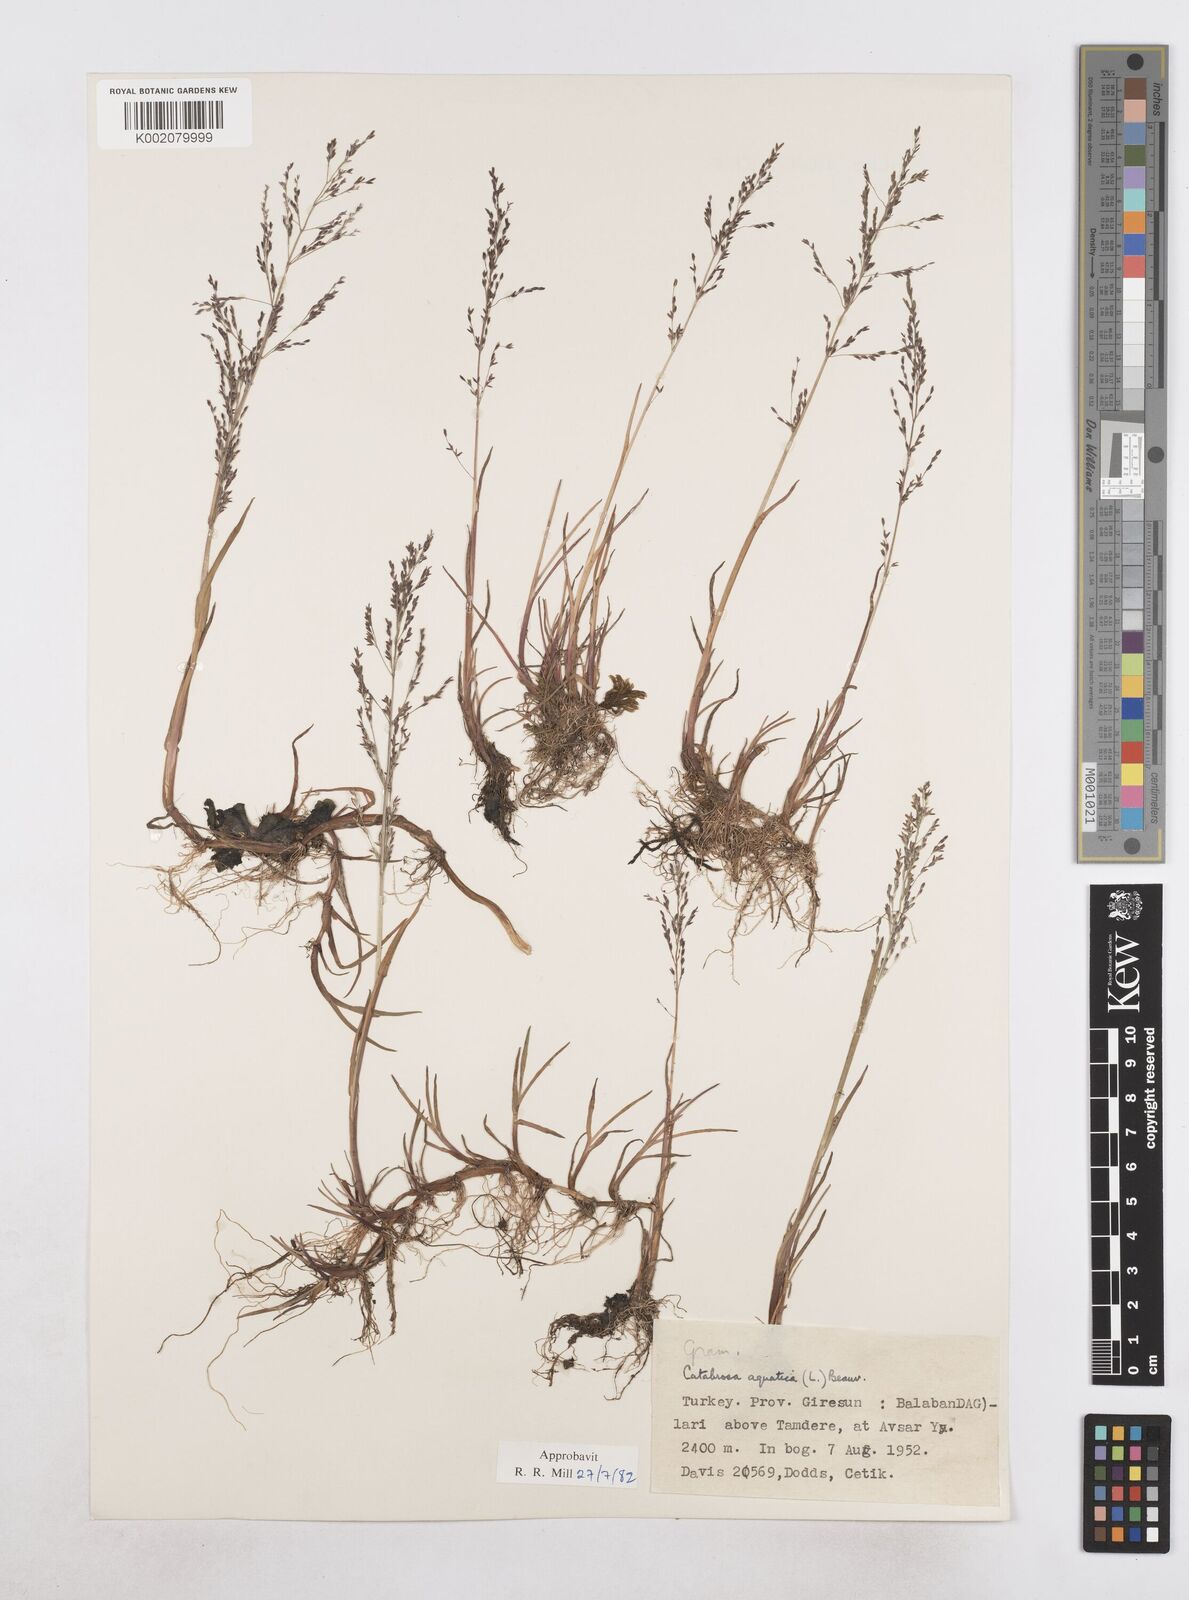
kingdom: Plantae
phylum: Tracheophyta
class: Liliopsida
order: Poales
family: Poaceae
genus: Catabrosa
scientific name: Catabrosa aquatica
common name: Whorl-grass
